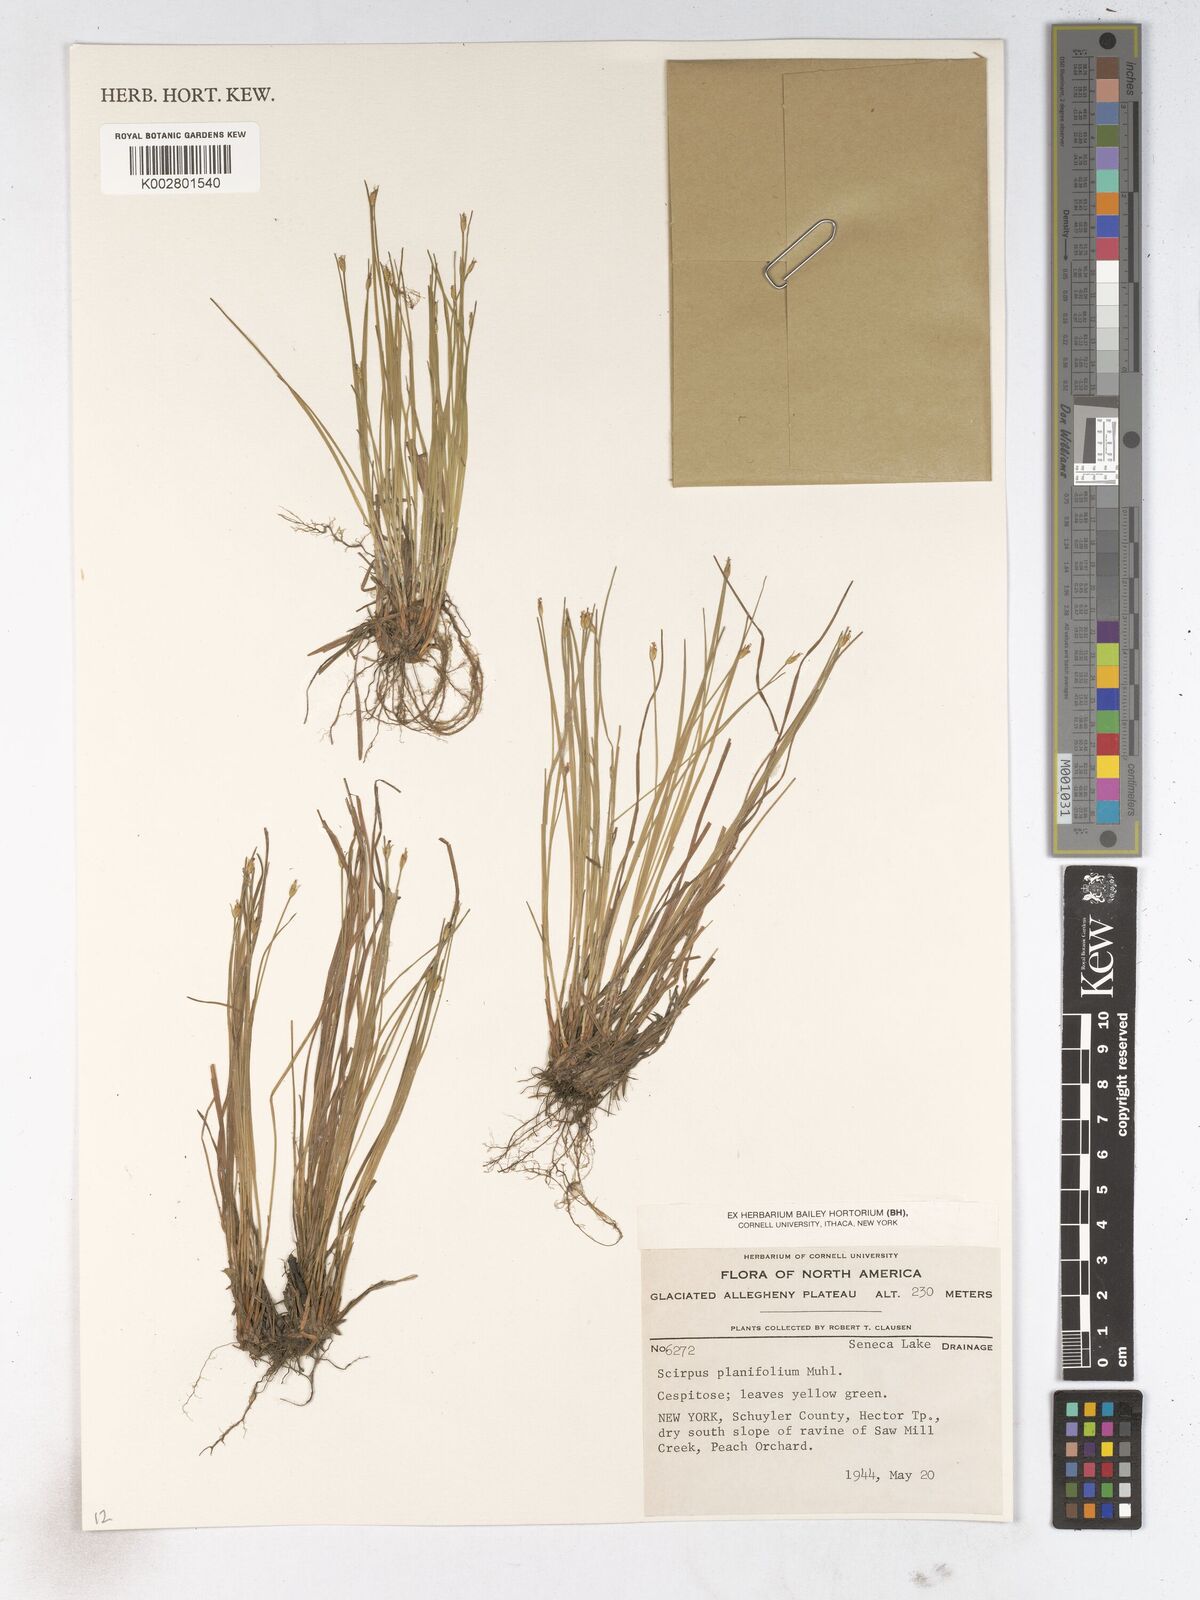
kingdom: Plantae
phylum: Tracheophyta
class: Liliopsida
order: Poales
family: Cyperaceae
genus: Trichophorum
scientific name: Trichophorum planifolium
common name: Bashful bulrush
